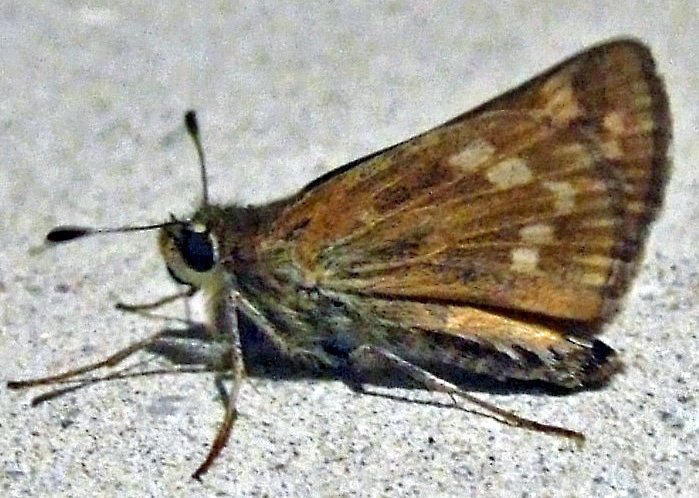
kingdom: Animalia
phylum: Arthropoda
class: Insecta
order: Lepidoptera
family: Hesperiidae
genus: Hesperia
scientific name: Hesperia sassacus
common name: Sassacus Skipper
